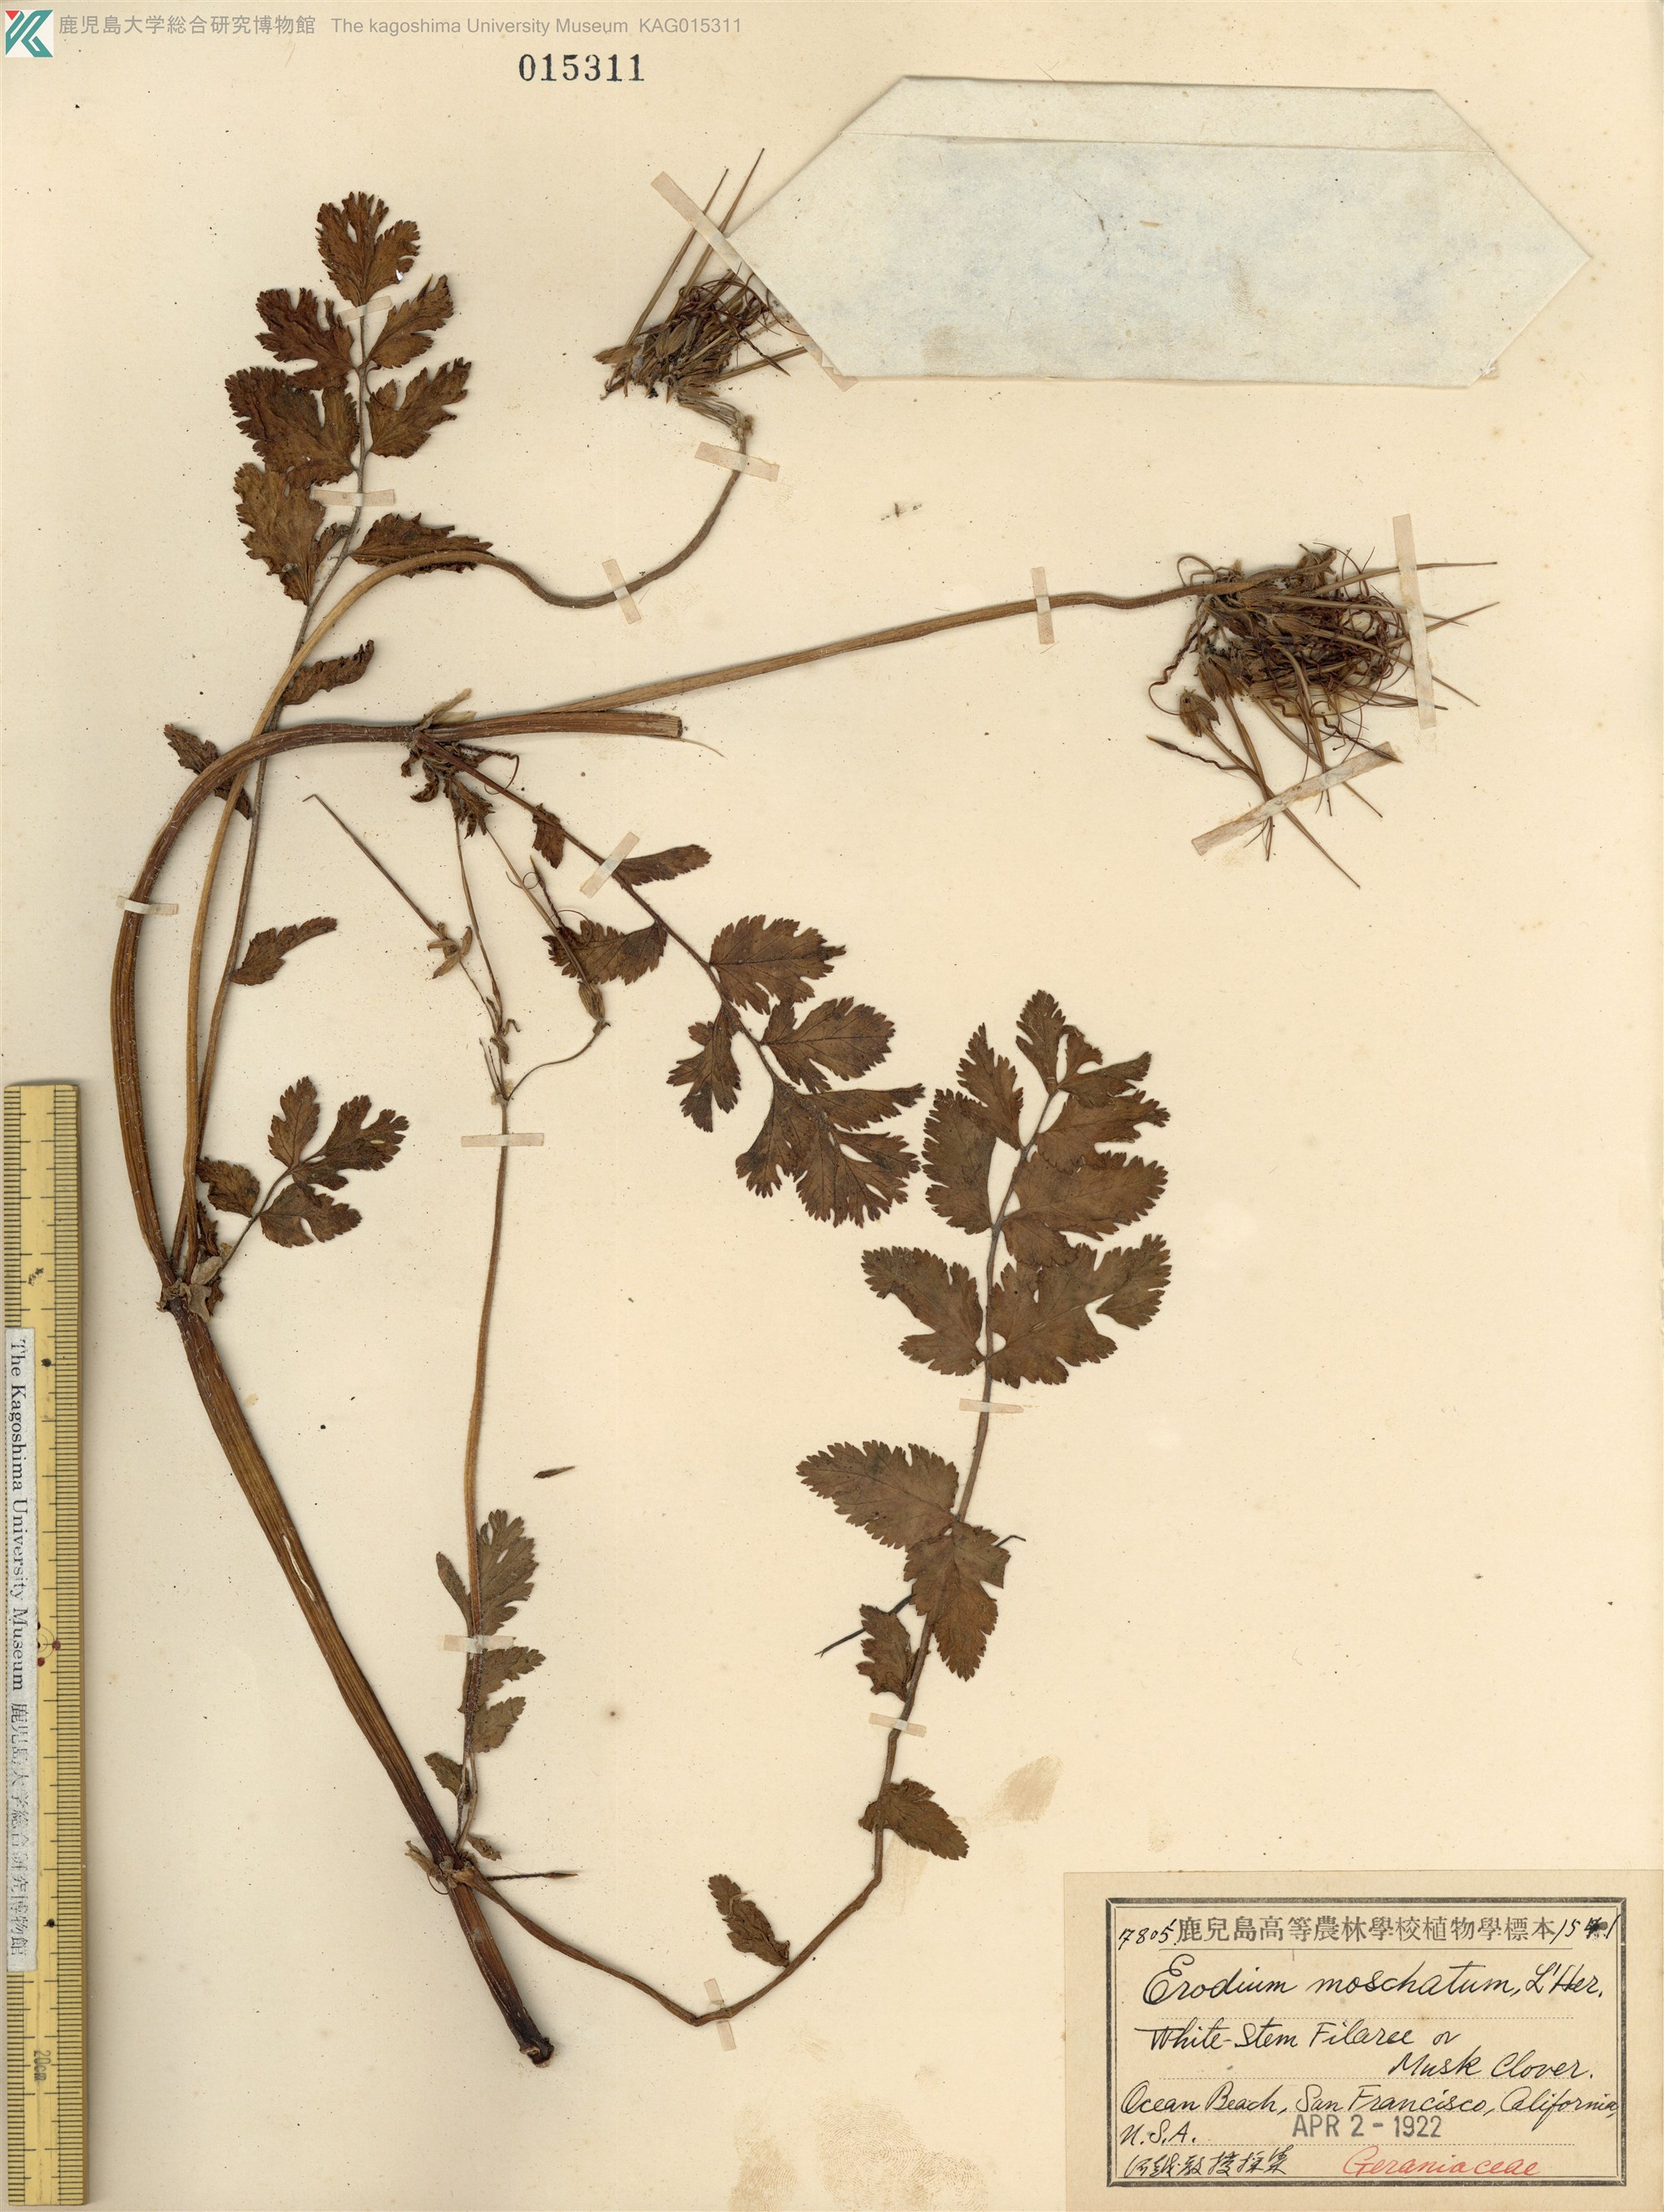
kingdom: Plantae
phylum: Tracheophyta
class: Magnoliopsida
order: Geraniales
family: Geraniaceae
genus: Erodium
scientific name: Erodium moschatum
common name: Musk stork's-bill
